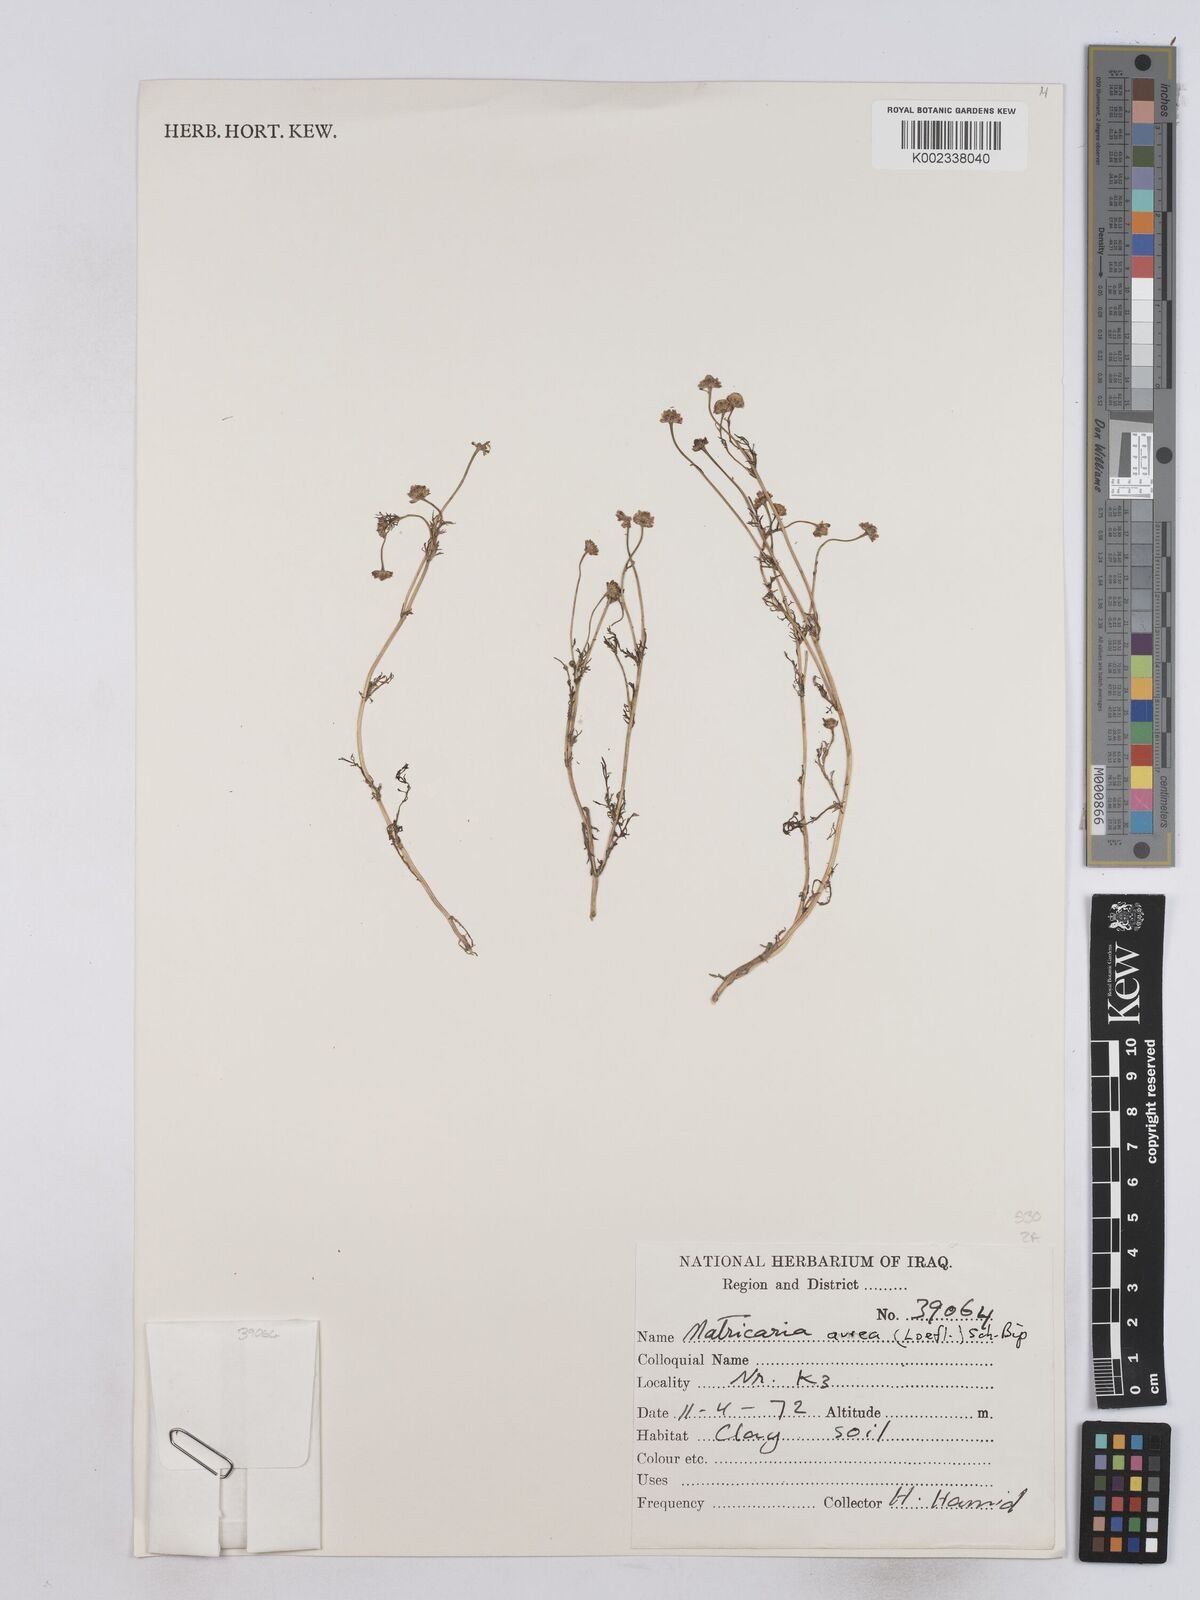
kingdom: Plantae
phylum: Tracheophyta
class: Magnoliopsida
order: Asterales
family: Asteraceae
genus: Matricaria
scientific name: Matricaria aurea
